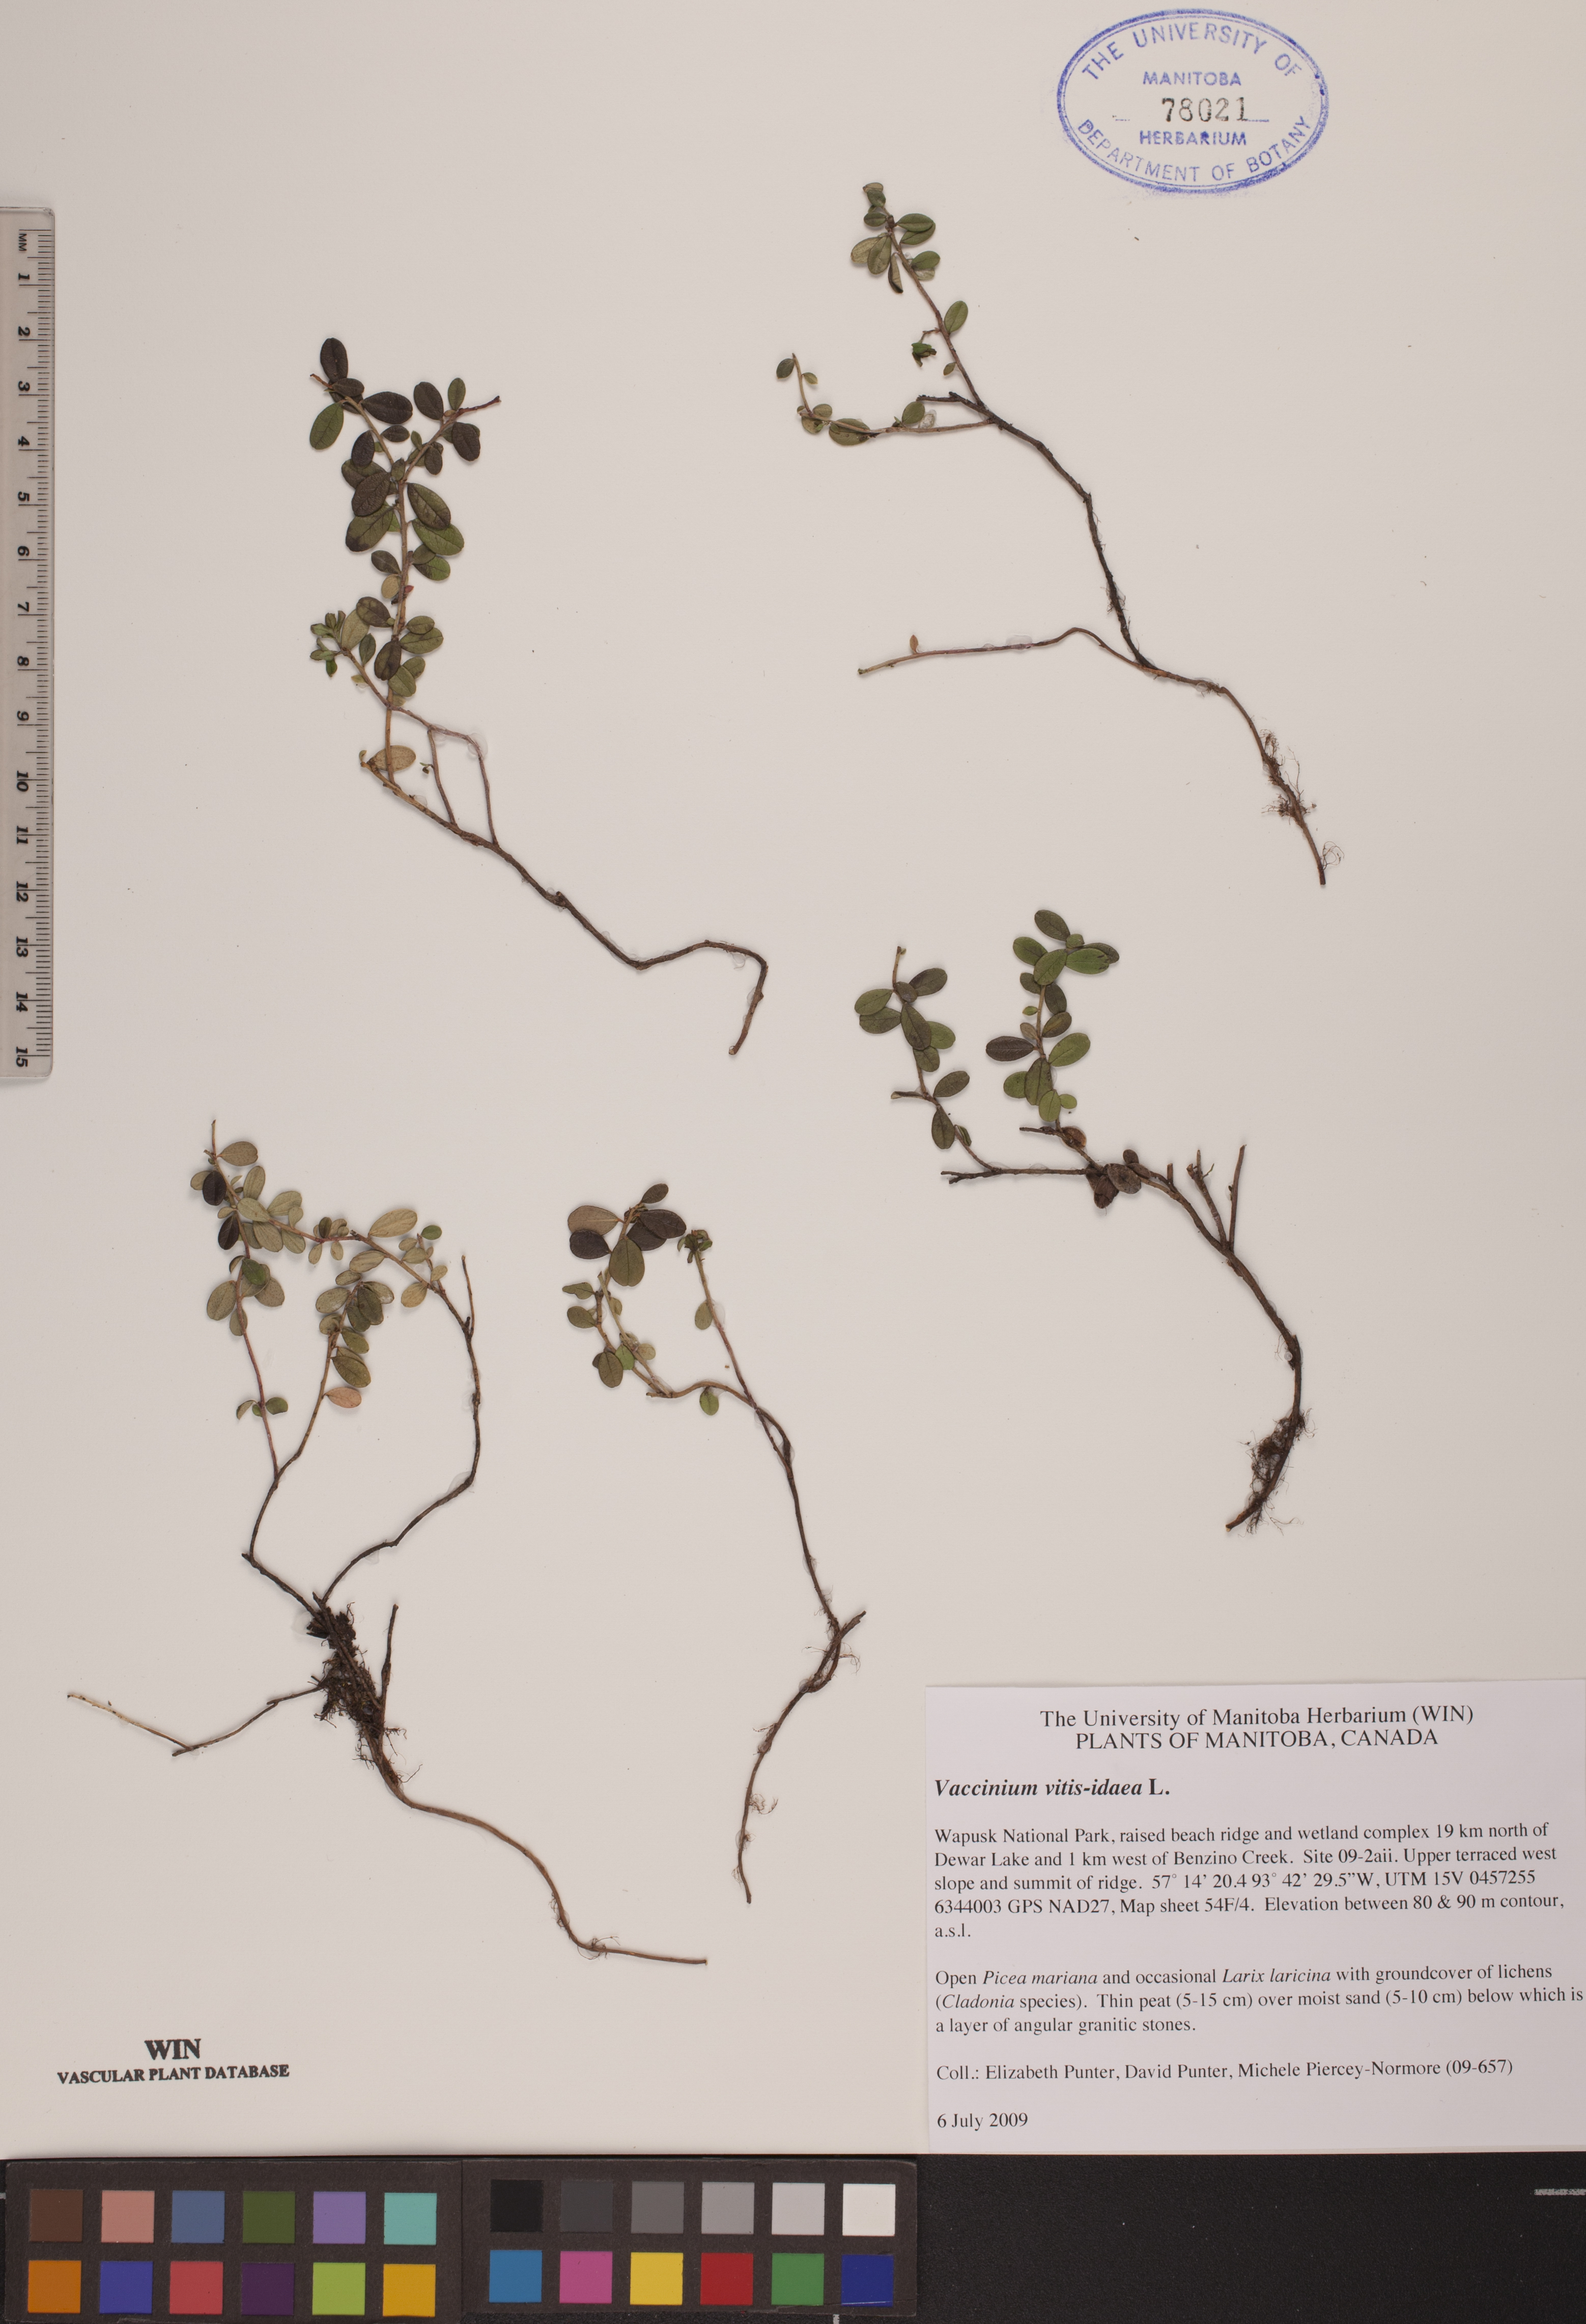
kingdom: Plantae
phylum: Tracheophyta
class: Magnoliopsida
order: Ericales
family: Ericaceae
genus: Vaccinium
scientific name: Vaccinium vitis-idaea
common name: Cowberry
